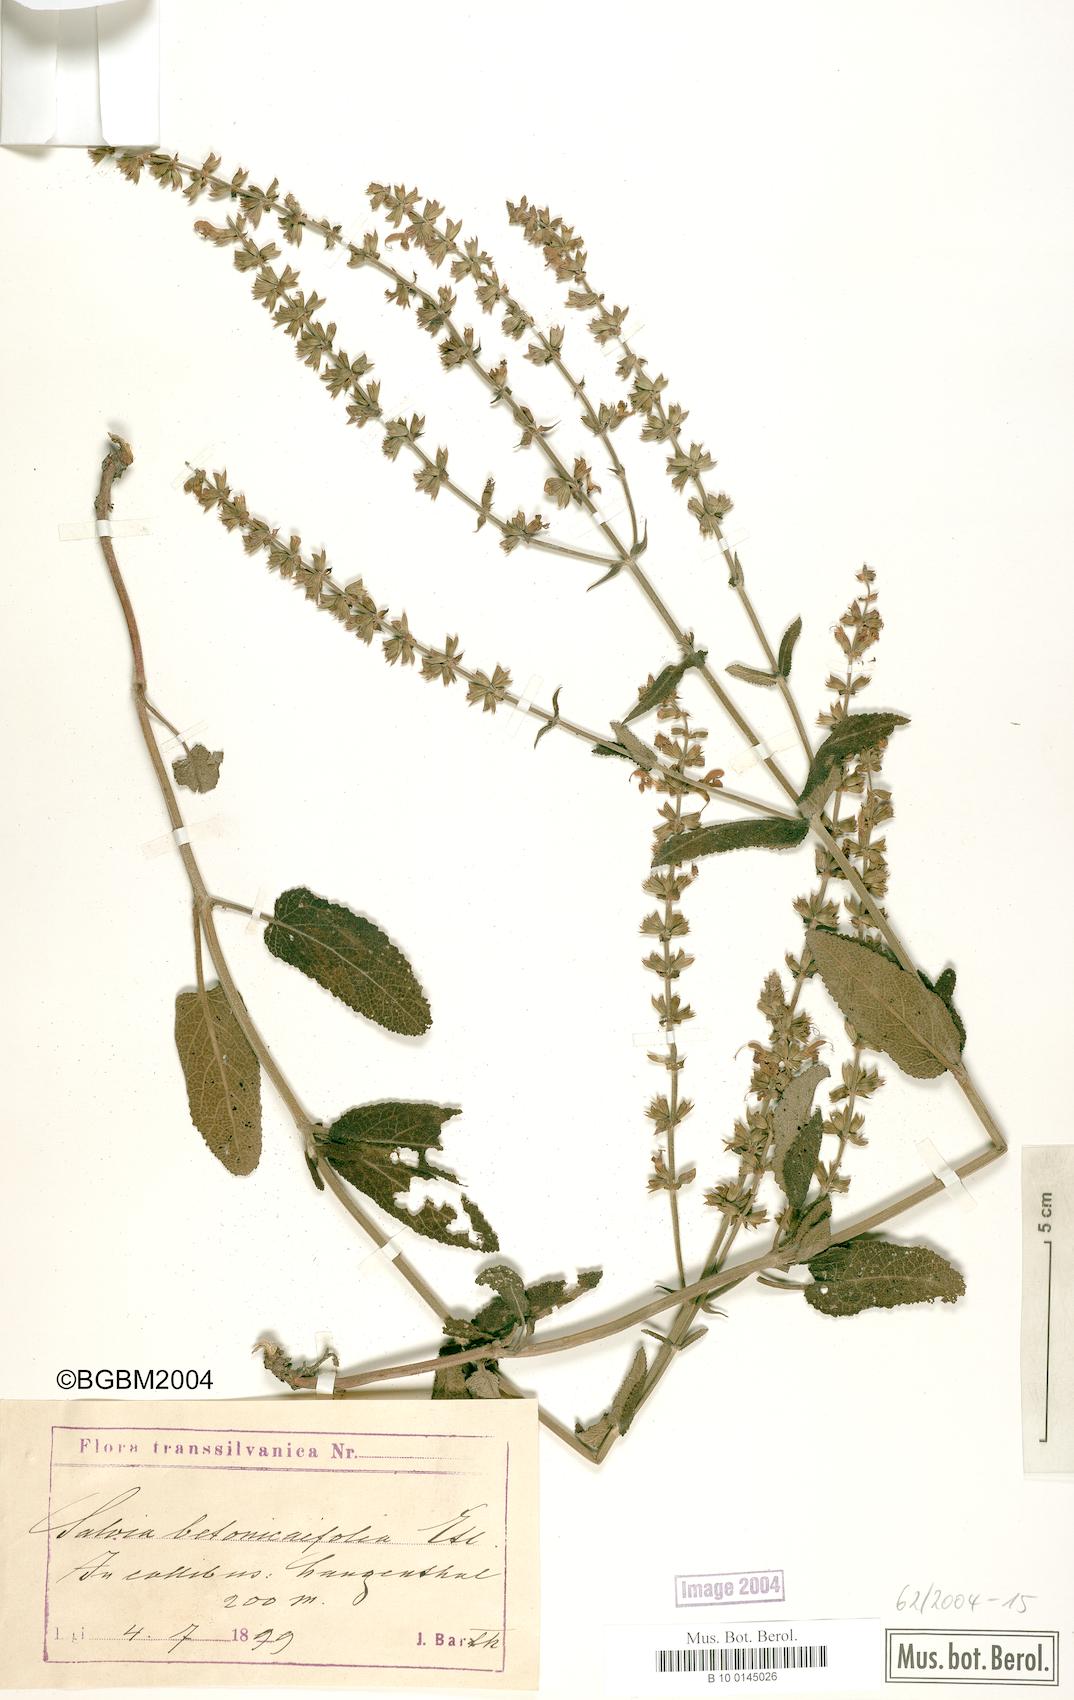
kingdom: Plantae
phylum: Tracheophyta
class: Magnoliopsida
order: Lamiales
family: Lamiaceae
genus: Salvia
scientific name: Salvia
